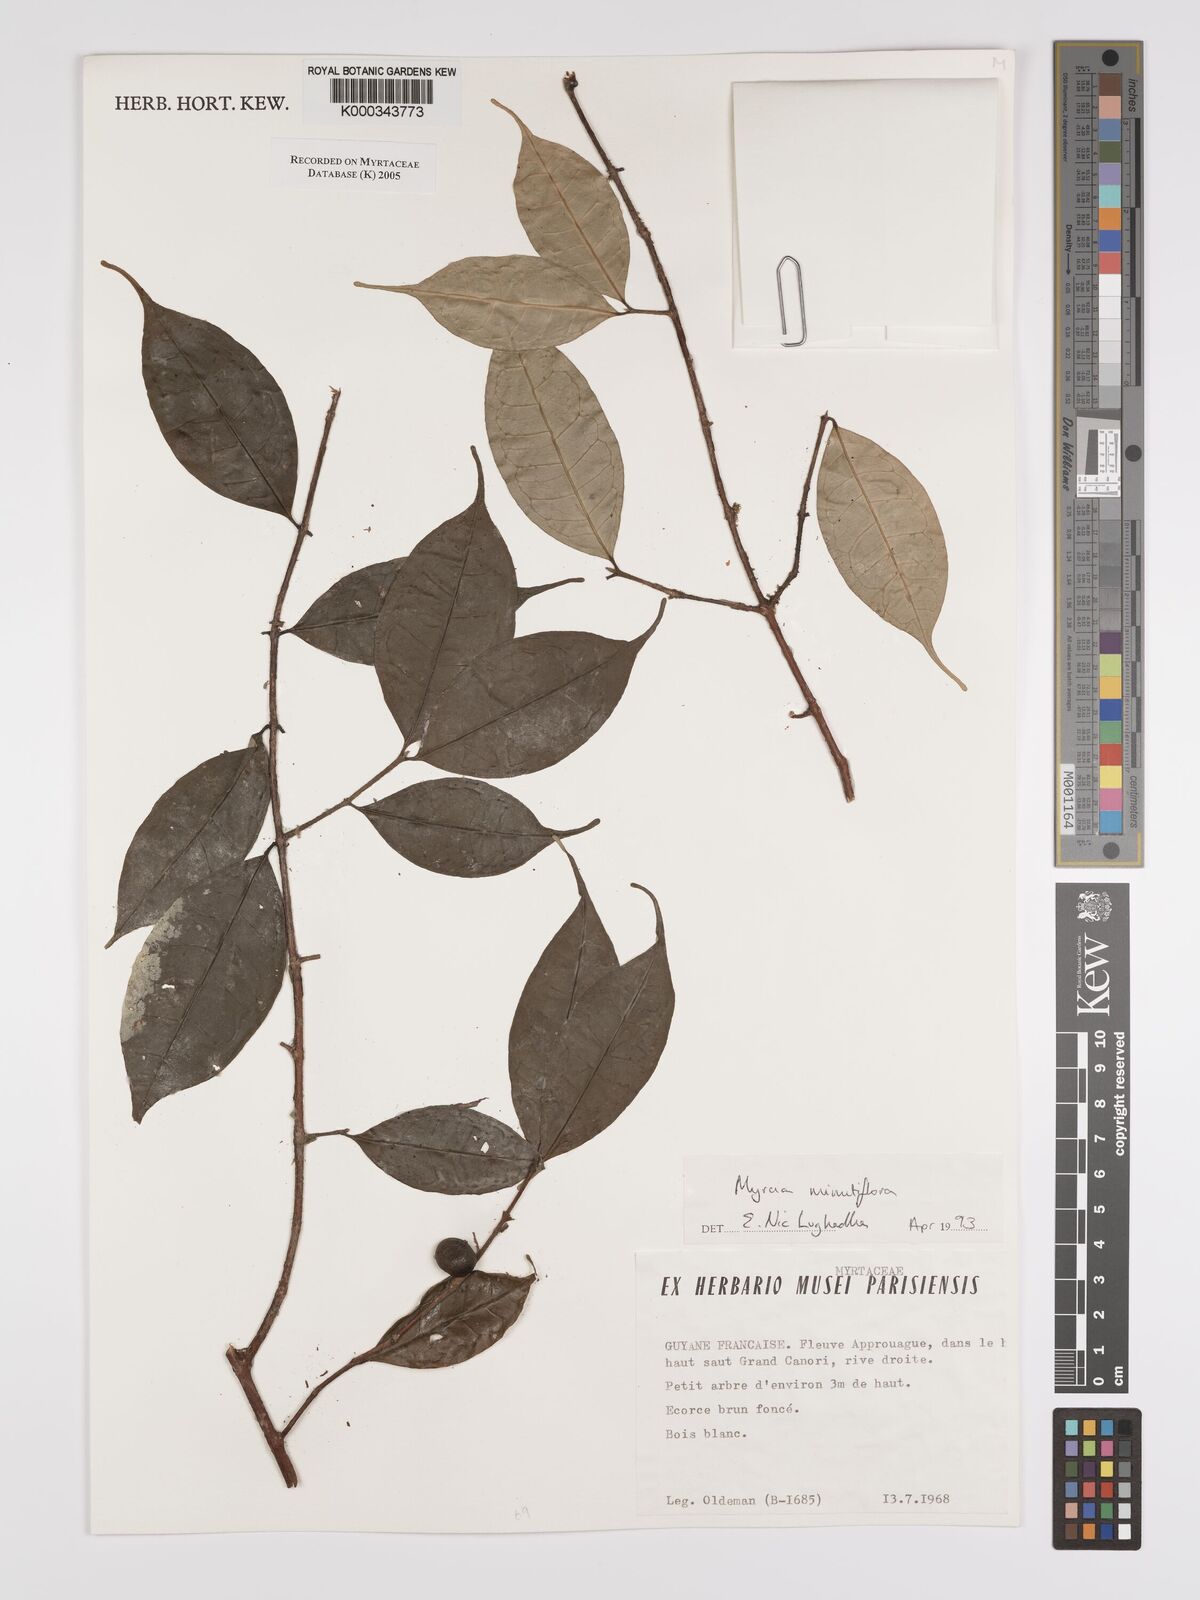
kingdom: Plantae
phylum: Tracheophyta
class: Magnoliopsida
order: Myrtales
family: Myrtaceae
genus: Myrcia
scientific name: Myrcia minutiflora
